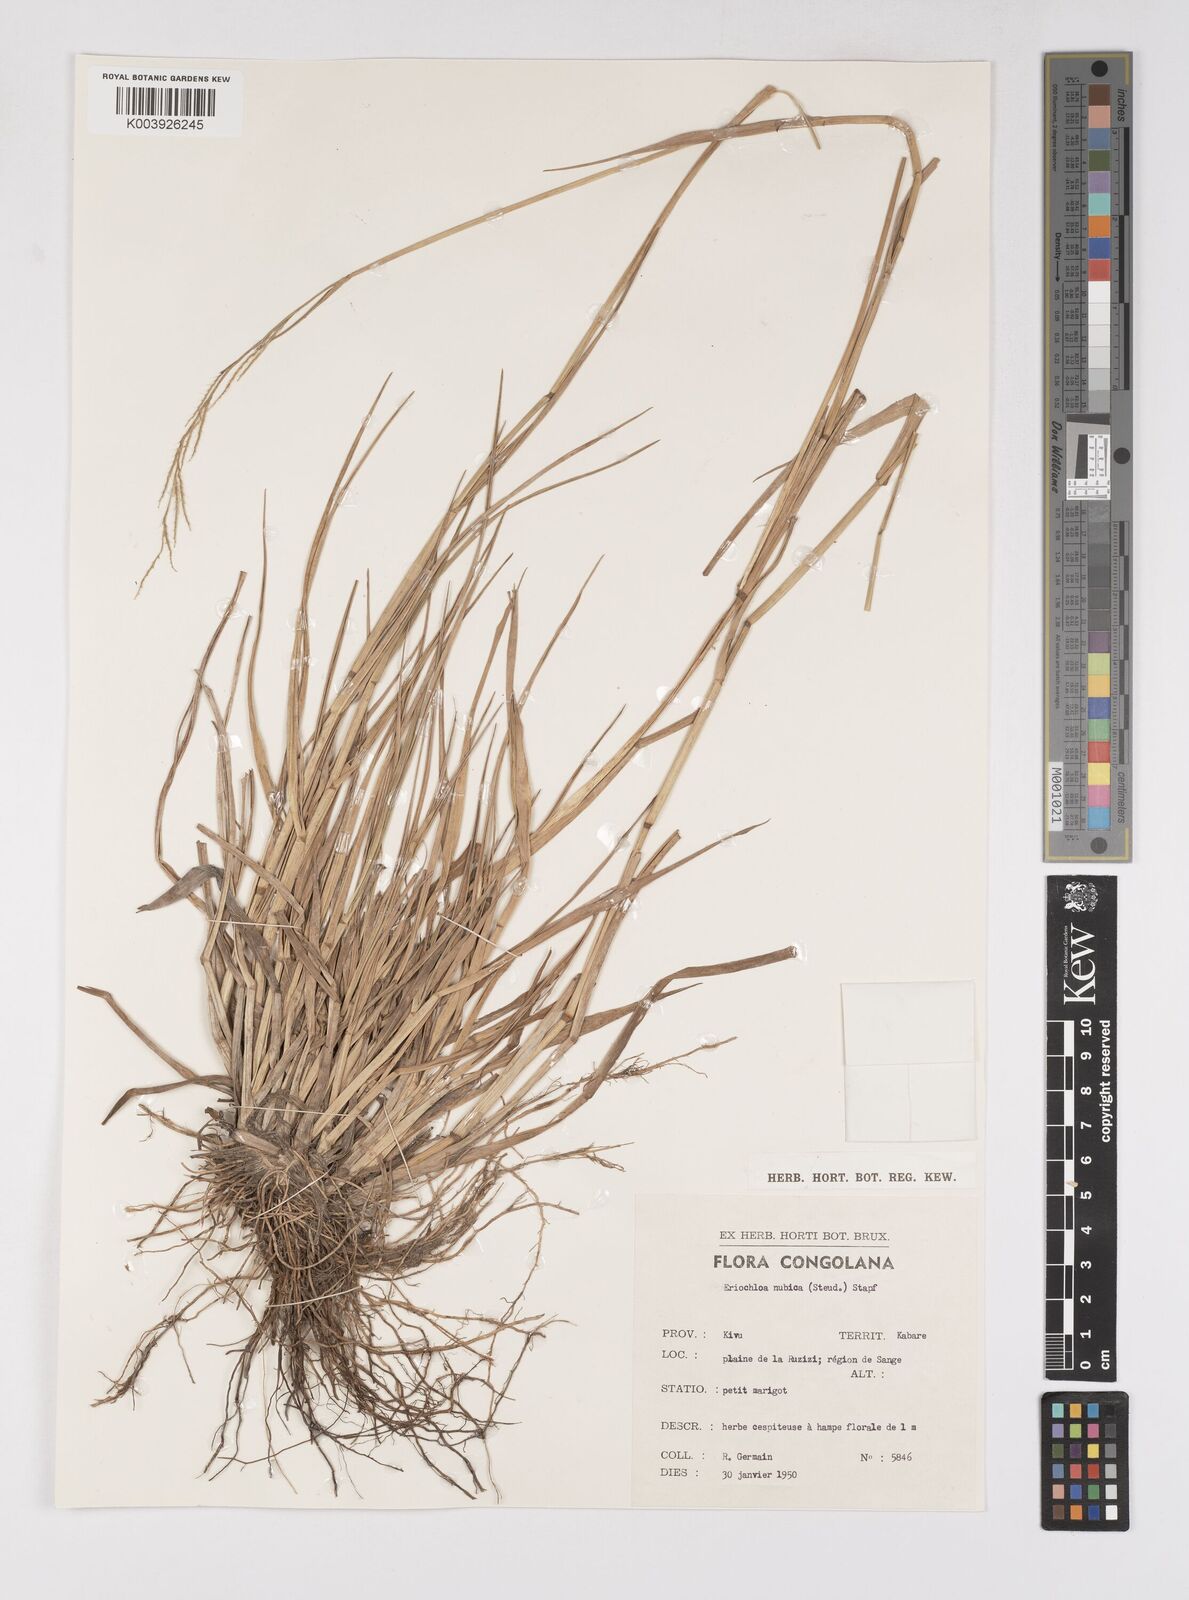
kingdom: Plantae
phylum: Tracheophyta
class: Liliopsida
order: Poales
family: Poaceae
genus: Eriochloa
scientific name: Eriochloa barbatus
